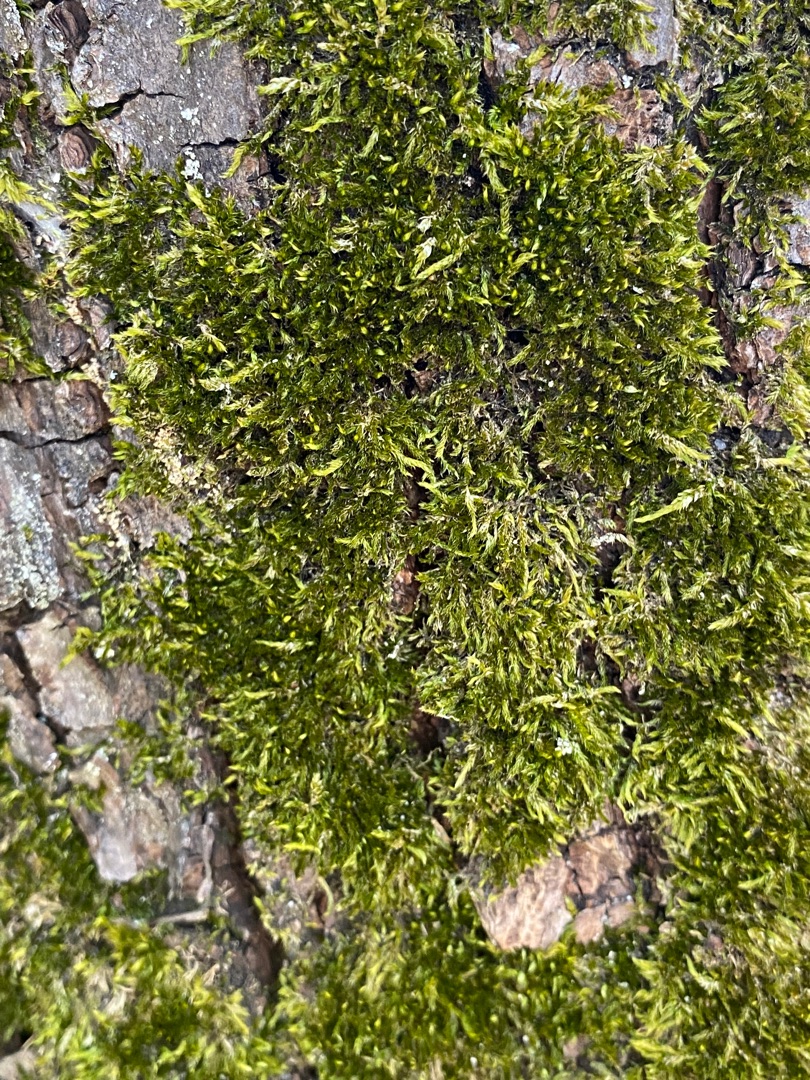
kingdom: Plantae
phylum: Bryophyta
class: Bryopsida
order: Hypnales
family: Hypnaceae
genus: Hypnum
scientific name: Hypnum cupressiforme
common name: Almindelig cypresmos
